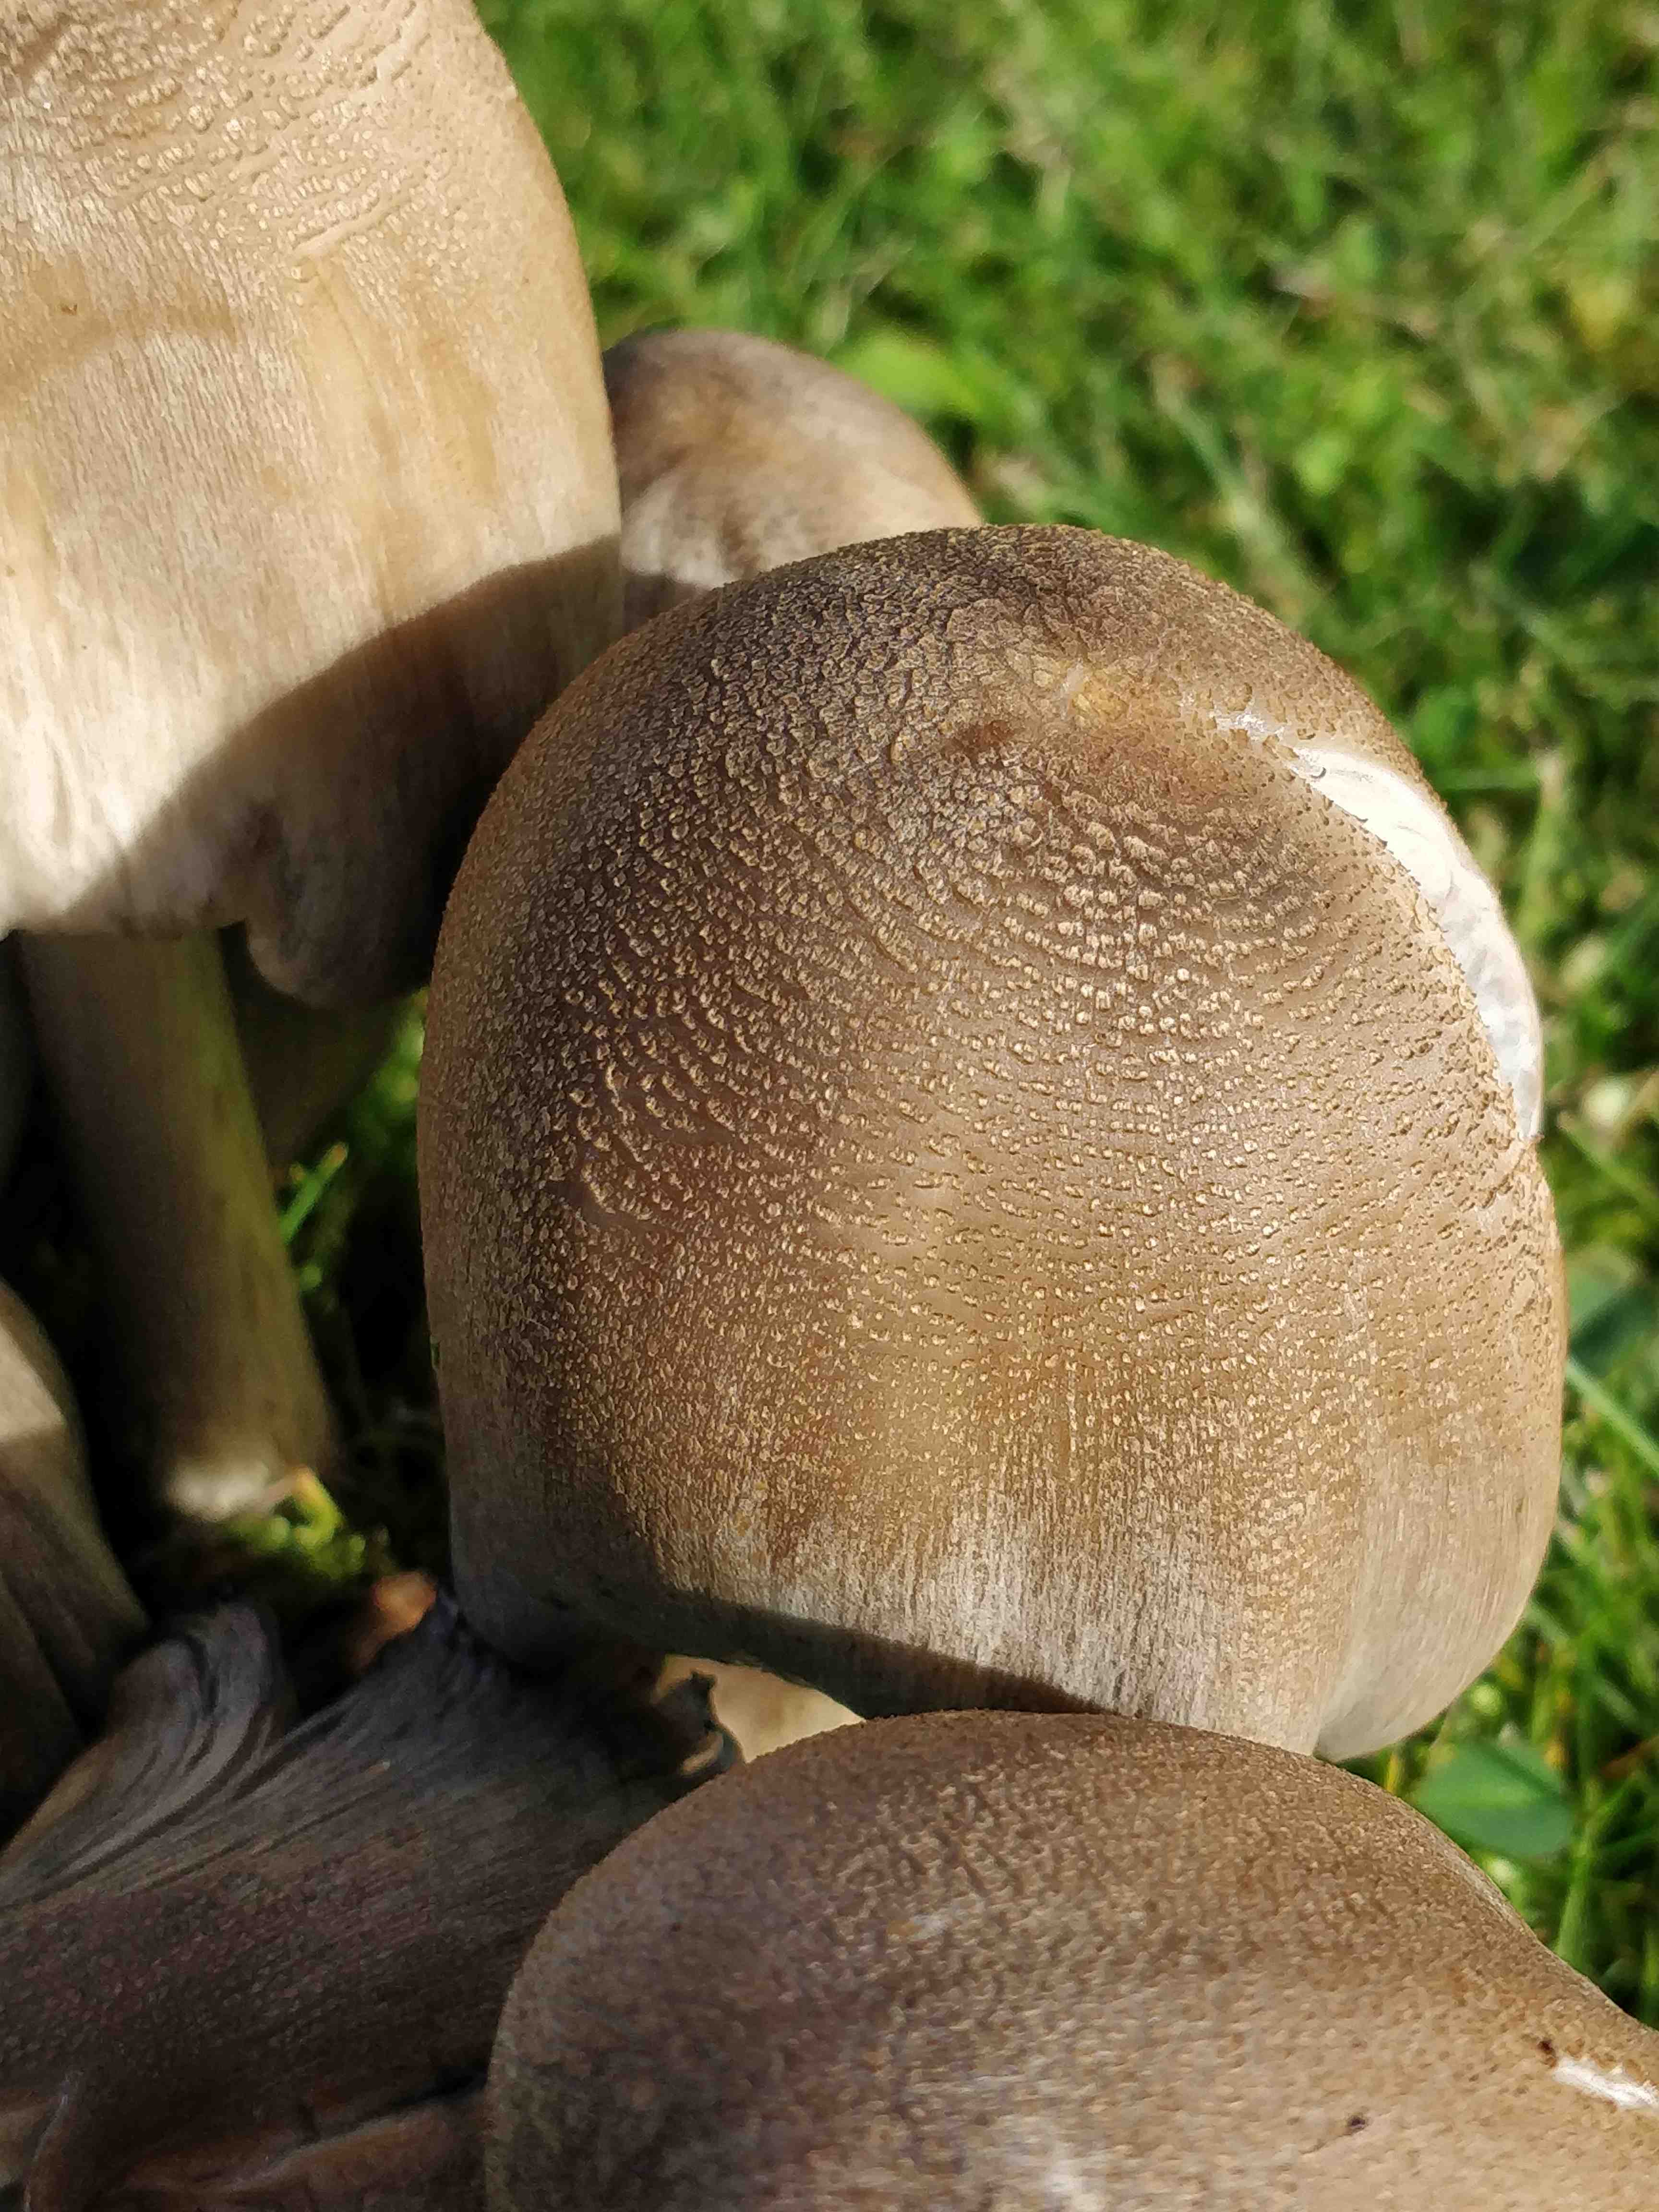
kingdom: Fungi
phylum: Basidiomycota
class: Agaricomycetes
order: Agaricales
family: Psathyrellaceae
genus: Coprinopsis
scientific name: Coprinopsis atramentaria
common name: almindelig blækhat
